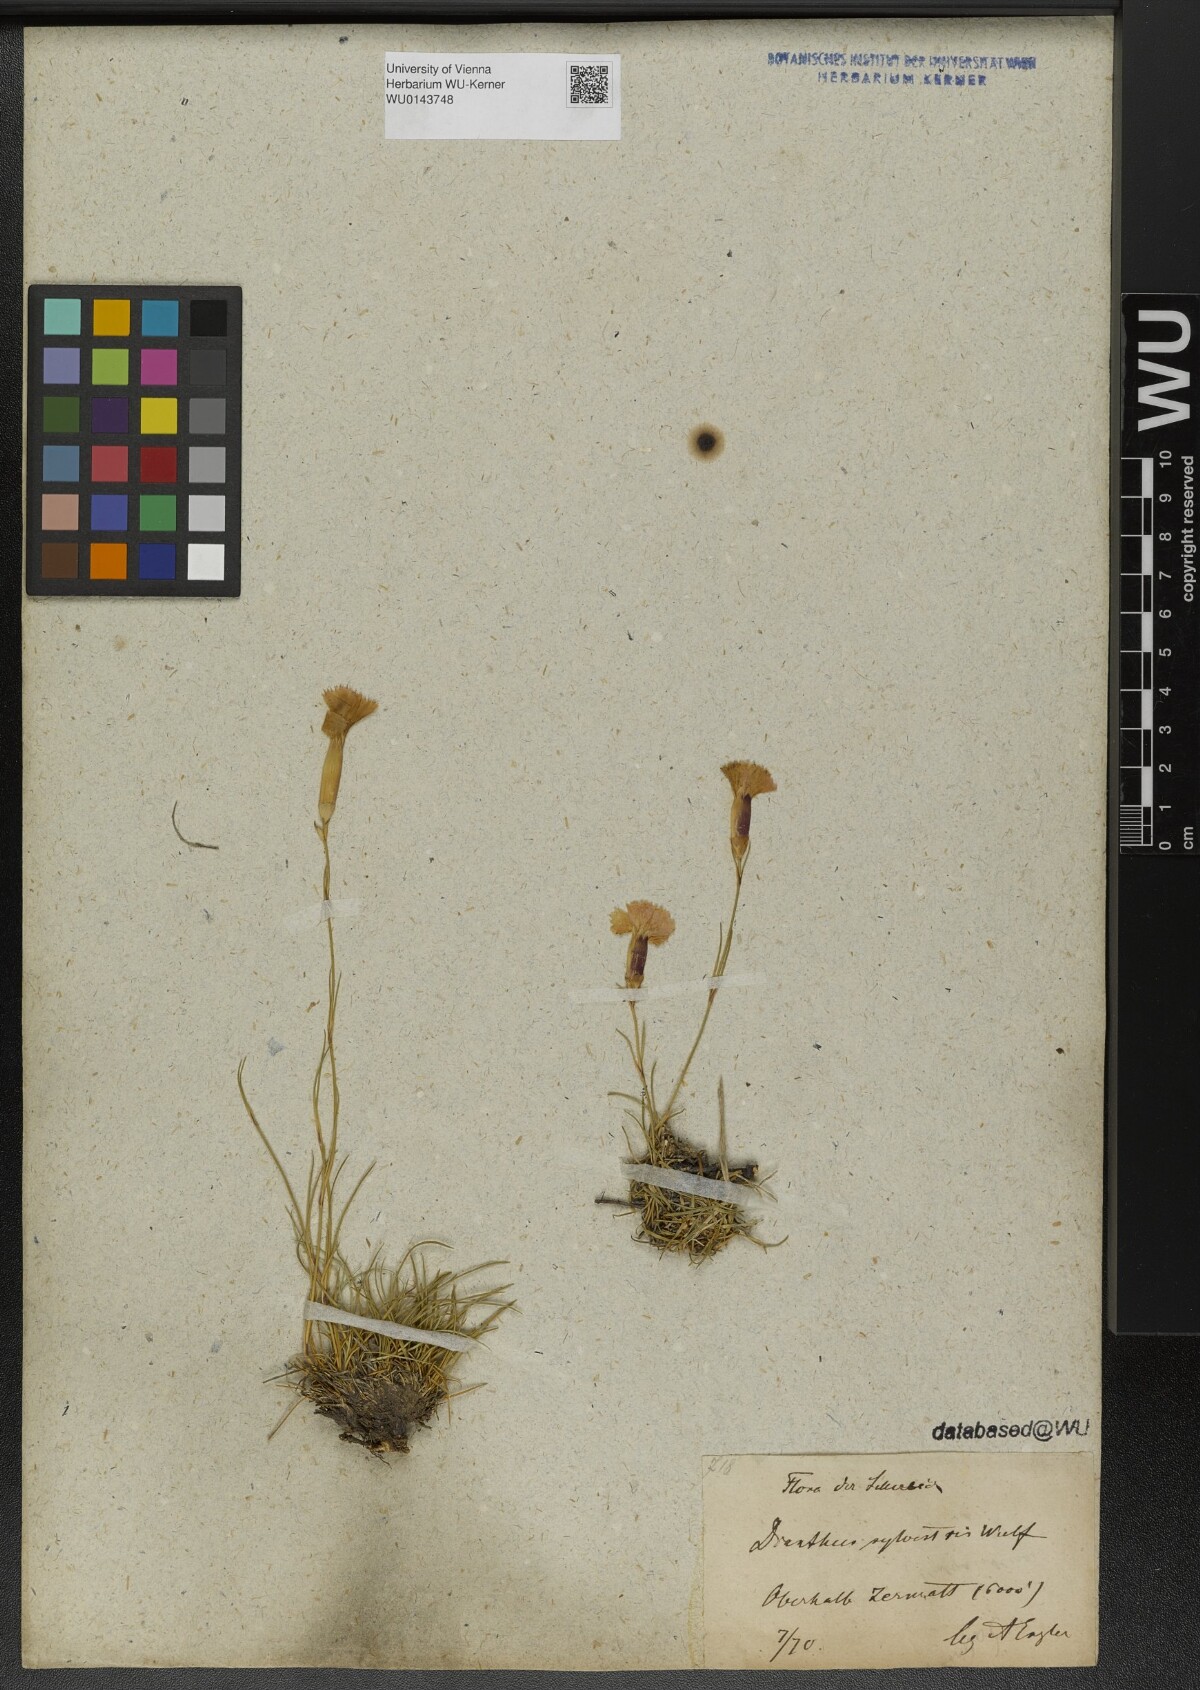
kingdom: Plantae
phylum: Tracheophyta
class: Magnoliopsida
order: Caryophyllales
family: Caryophyllaceae
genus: Dianthus
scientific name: Dianthus sylvestris
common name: Wood pink
